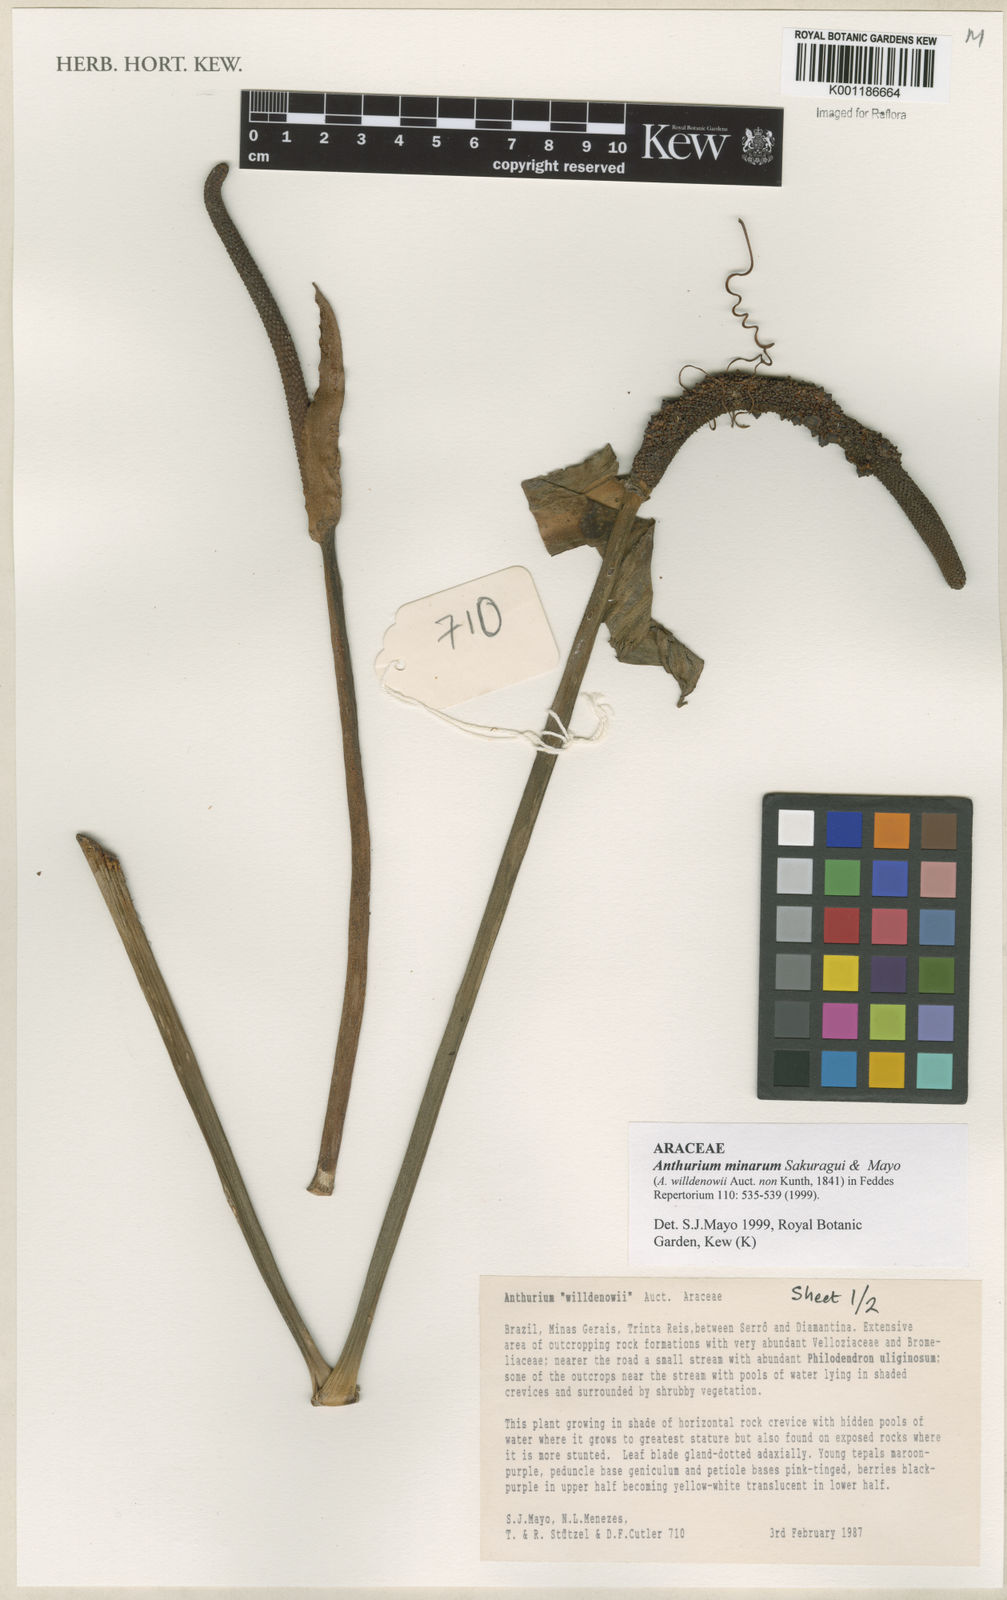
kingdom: Plantae
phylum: Tracheophyta
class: Liliopsida
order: Alismatales
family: Araceae
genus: Anthurium
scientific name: Anthurium minarum
